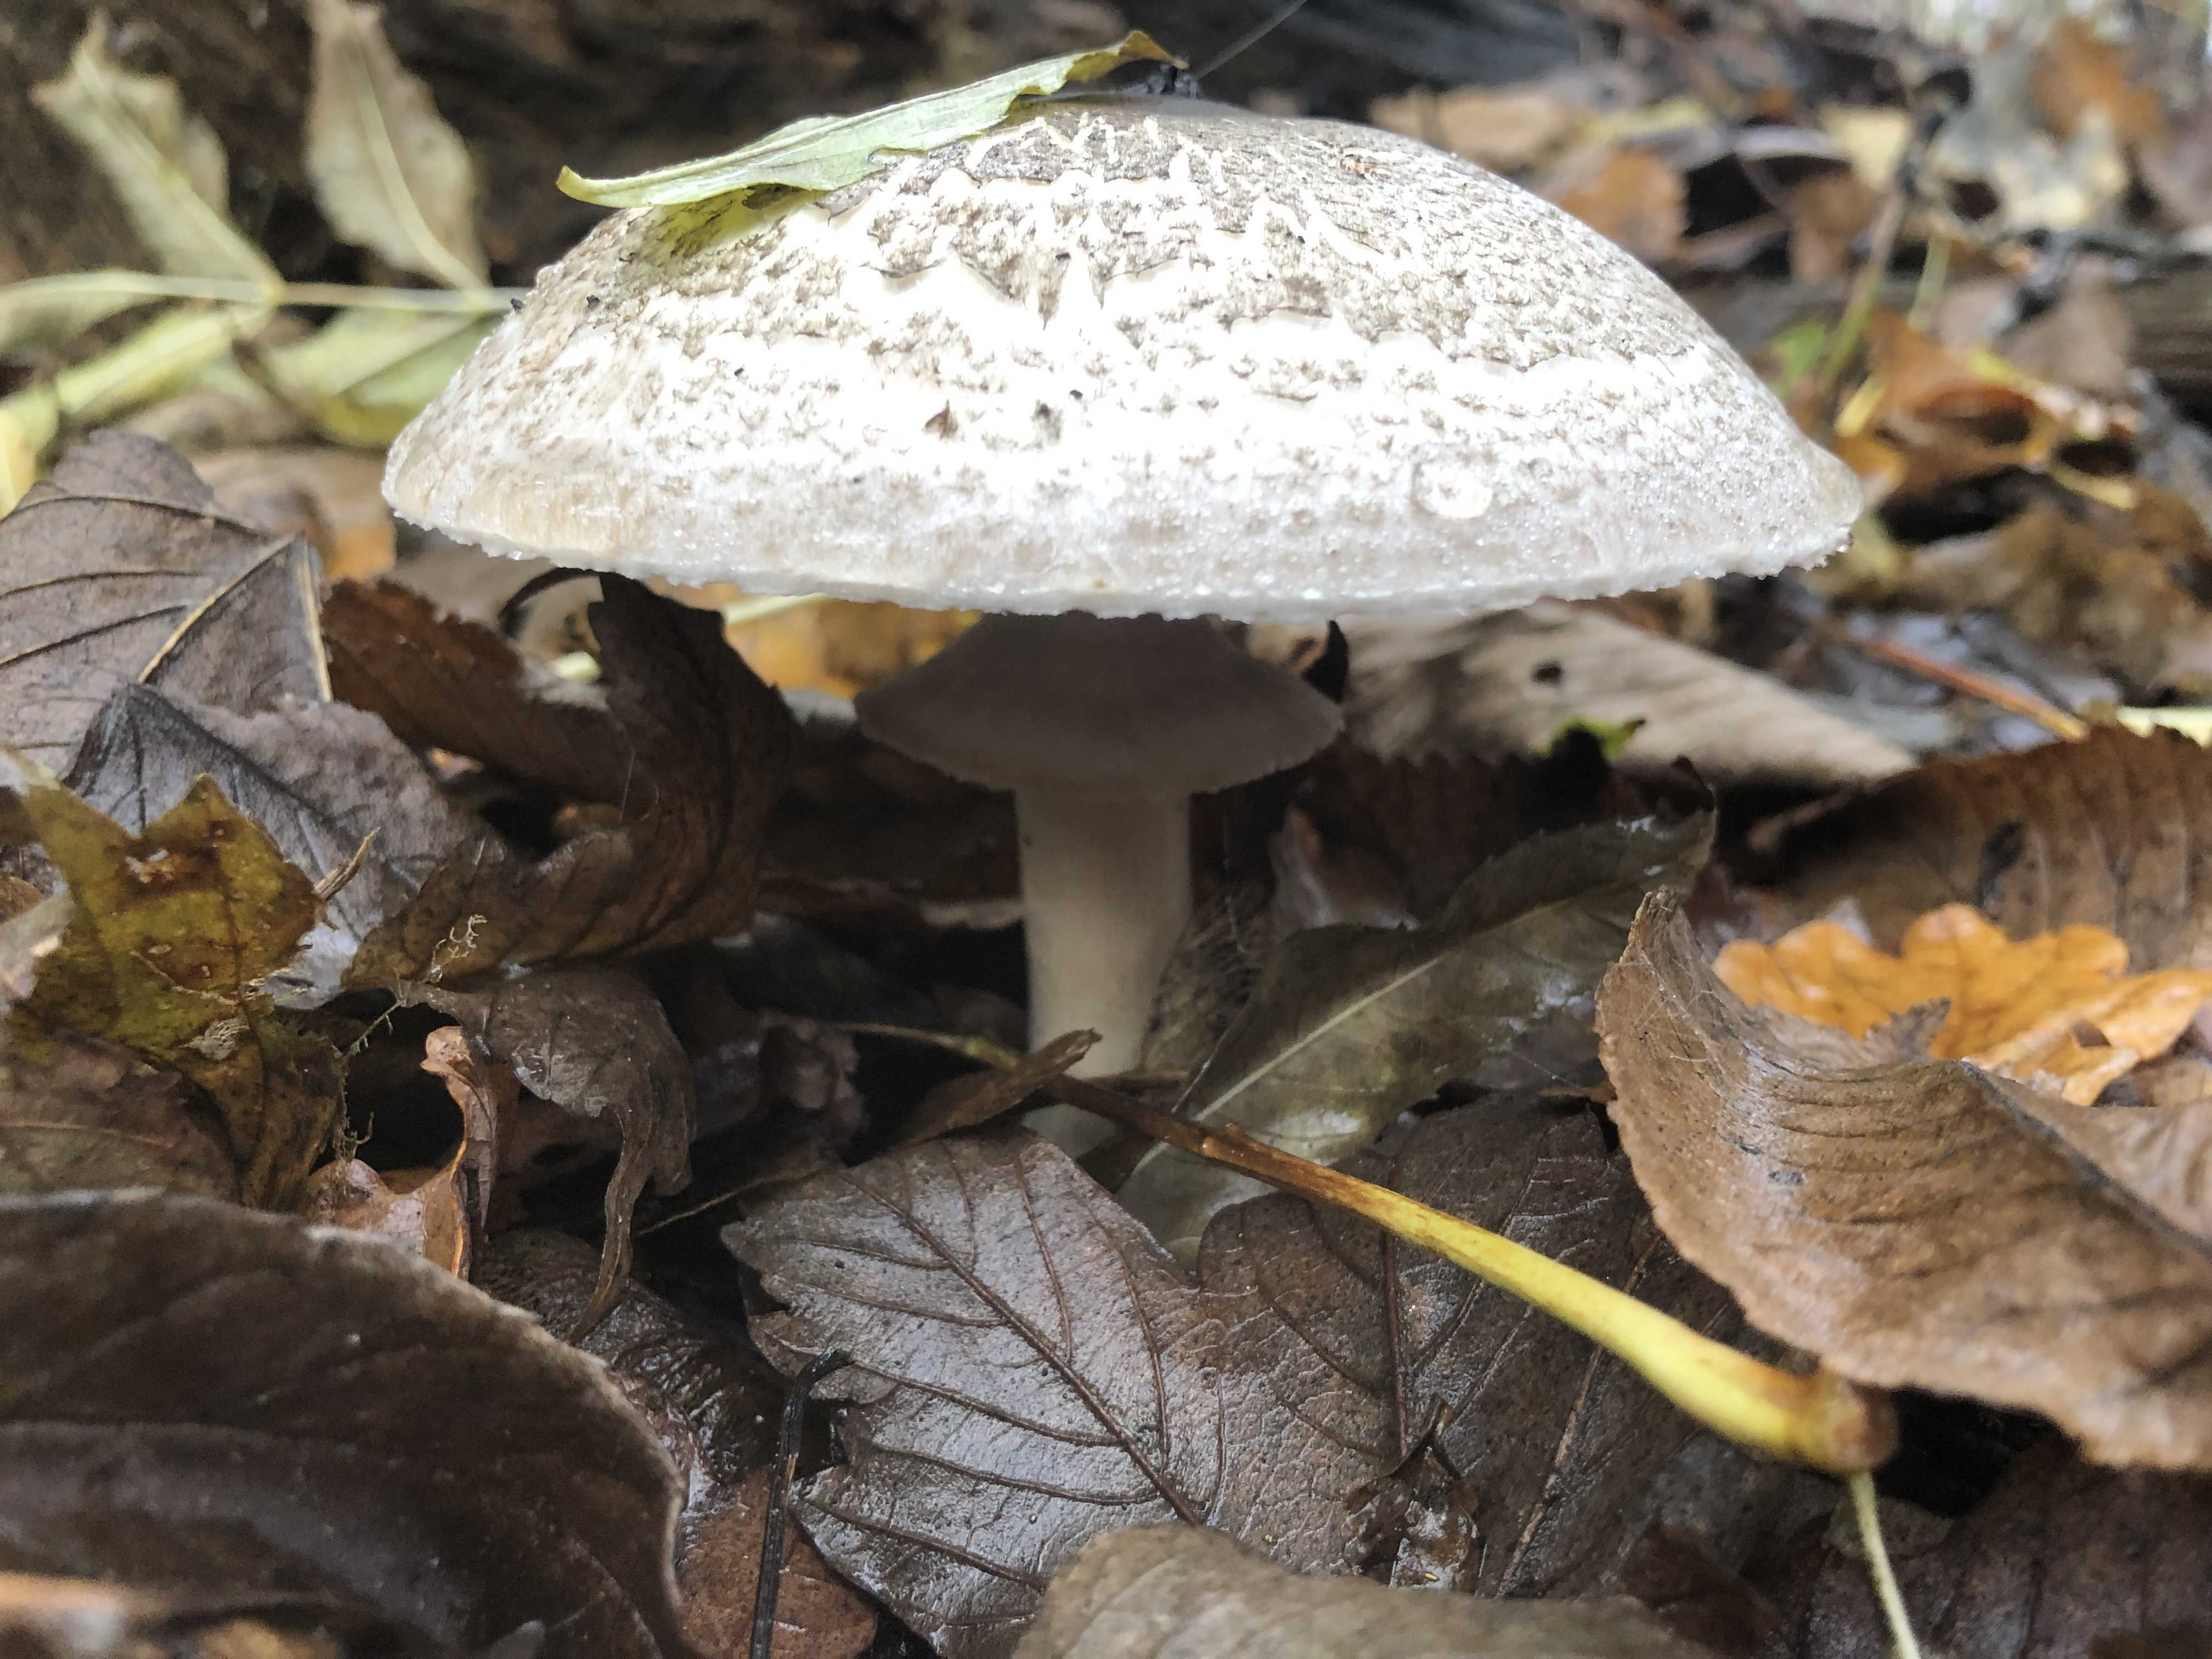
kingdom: Fungi
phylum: Basidiomycota
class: Agaricomycetes
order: Agaricales
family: Agaricaceae
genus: Agaricus
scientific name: Agaricus moelleri
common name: perlehøne-champignon
